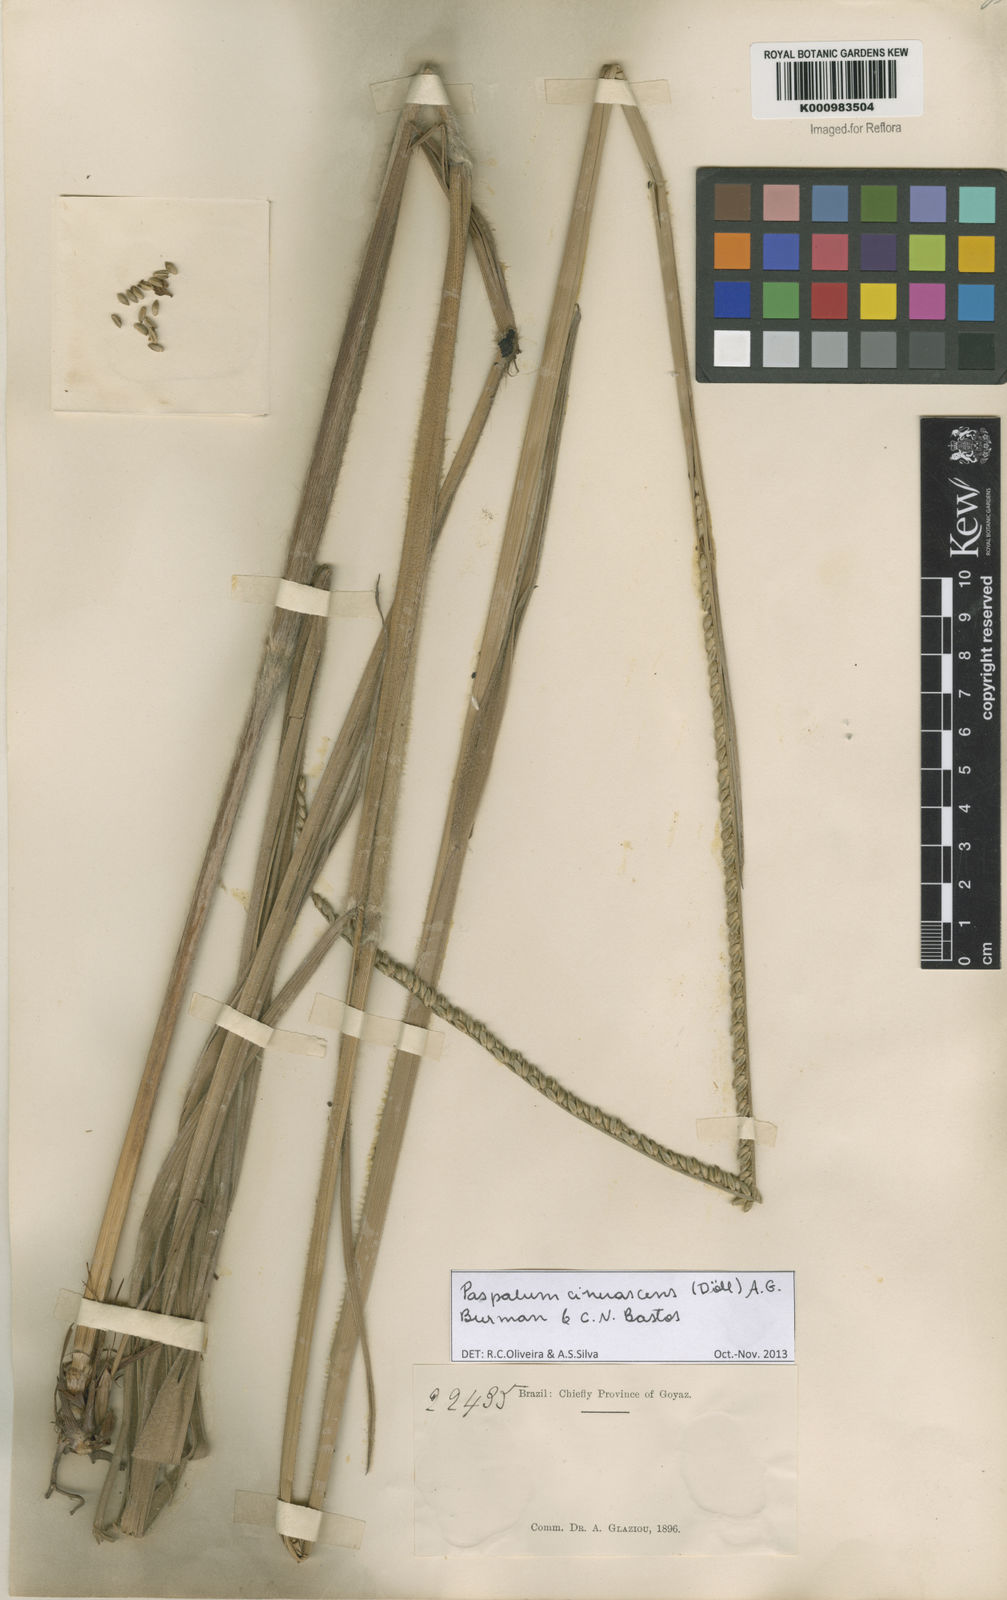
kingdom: Plantae
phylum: Tracheophyta
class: Liliopsida
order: Poales
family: Poaceae
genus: Paspalum
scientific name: Paspalum
